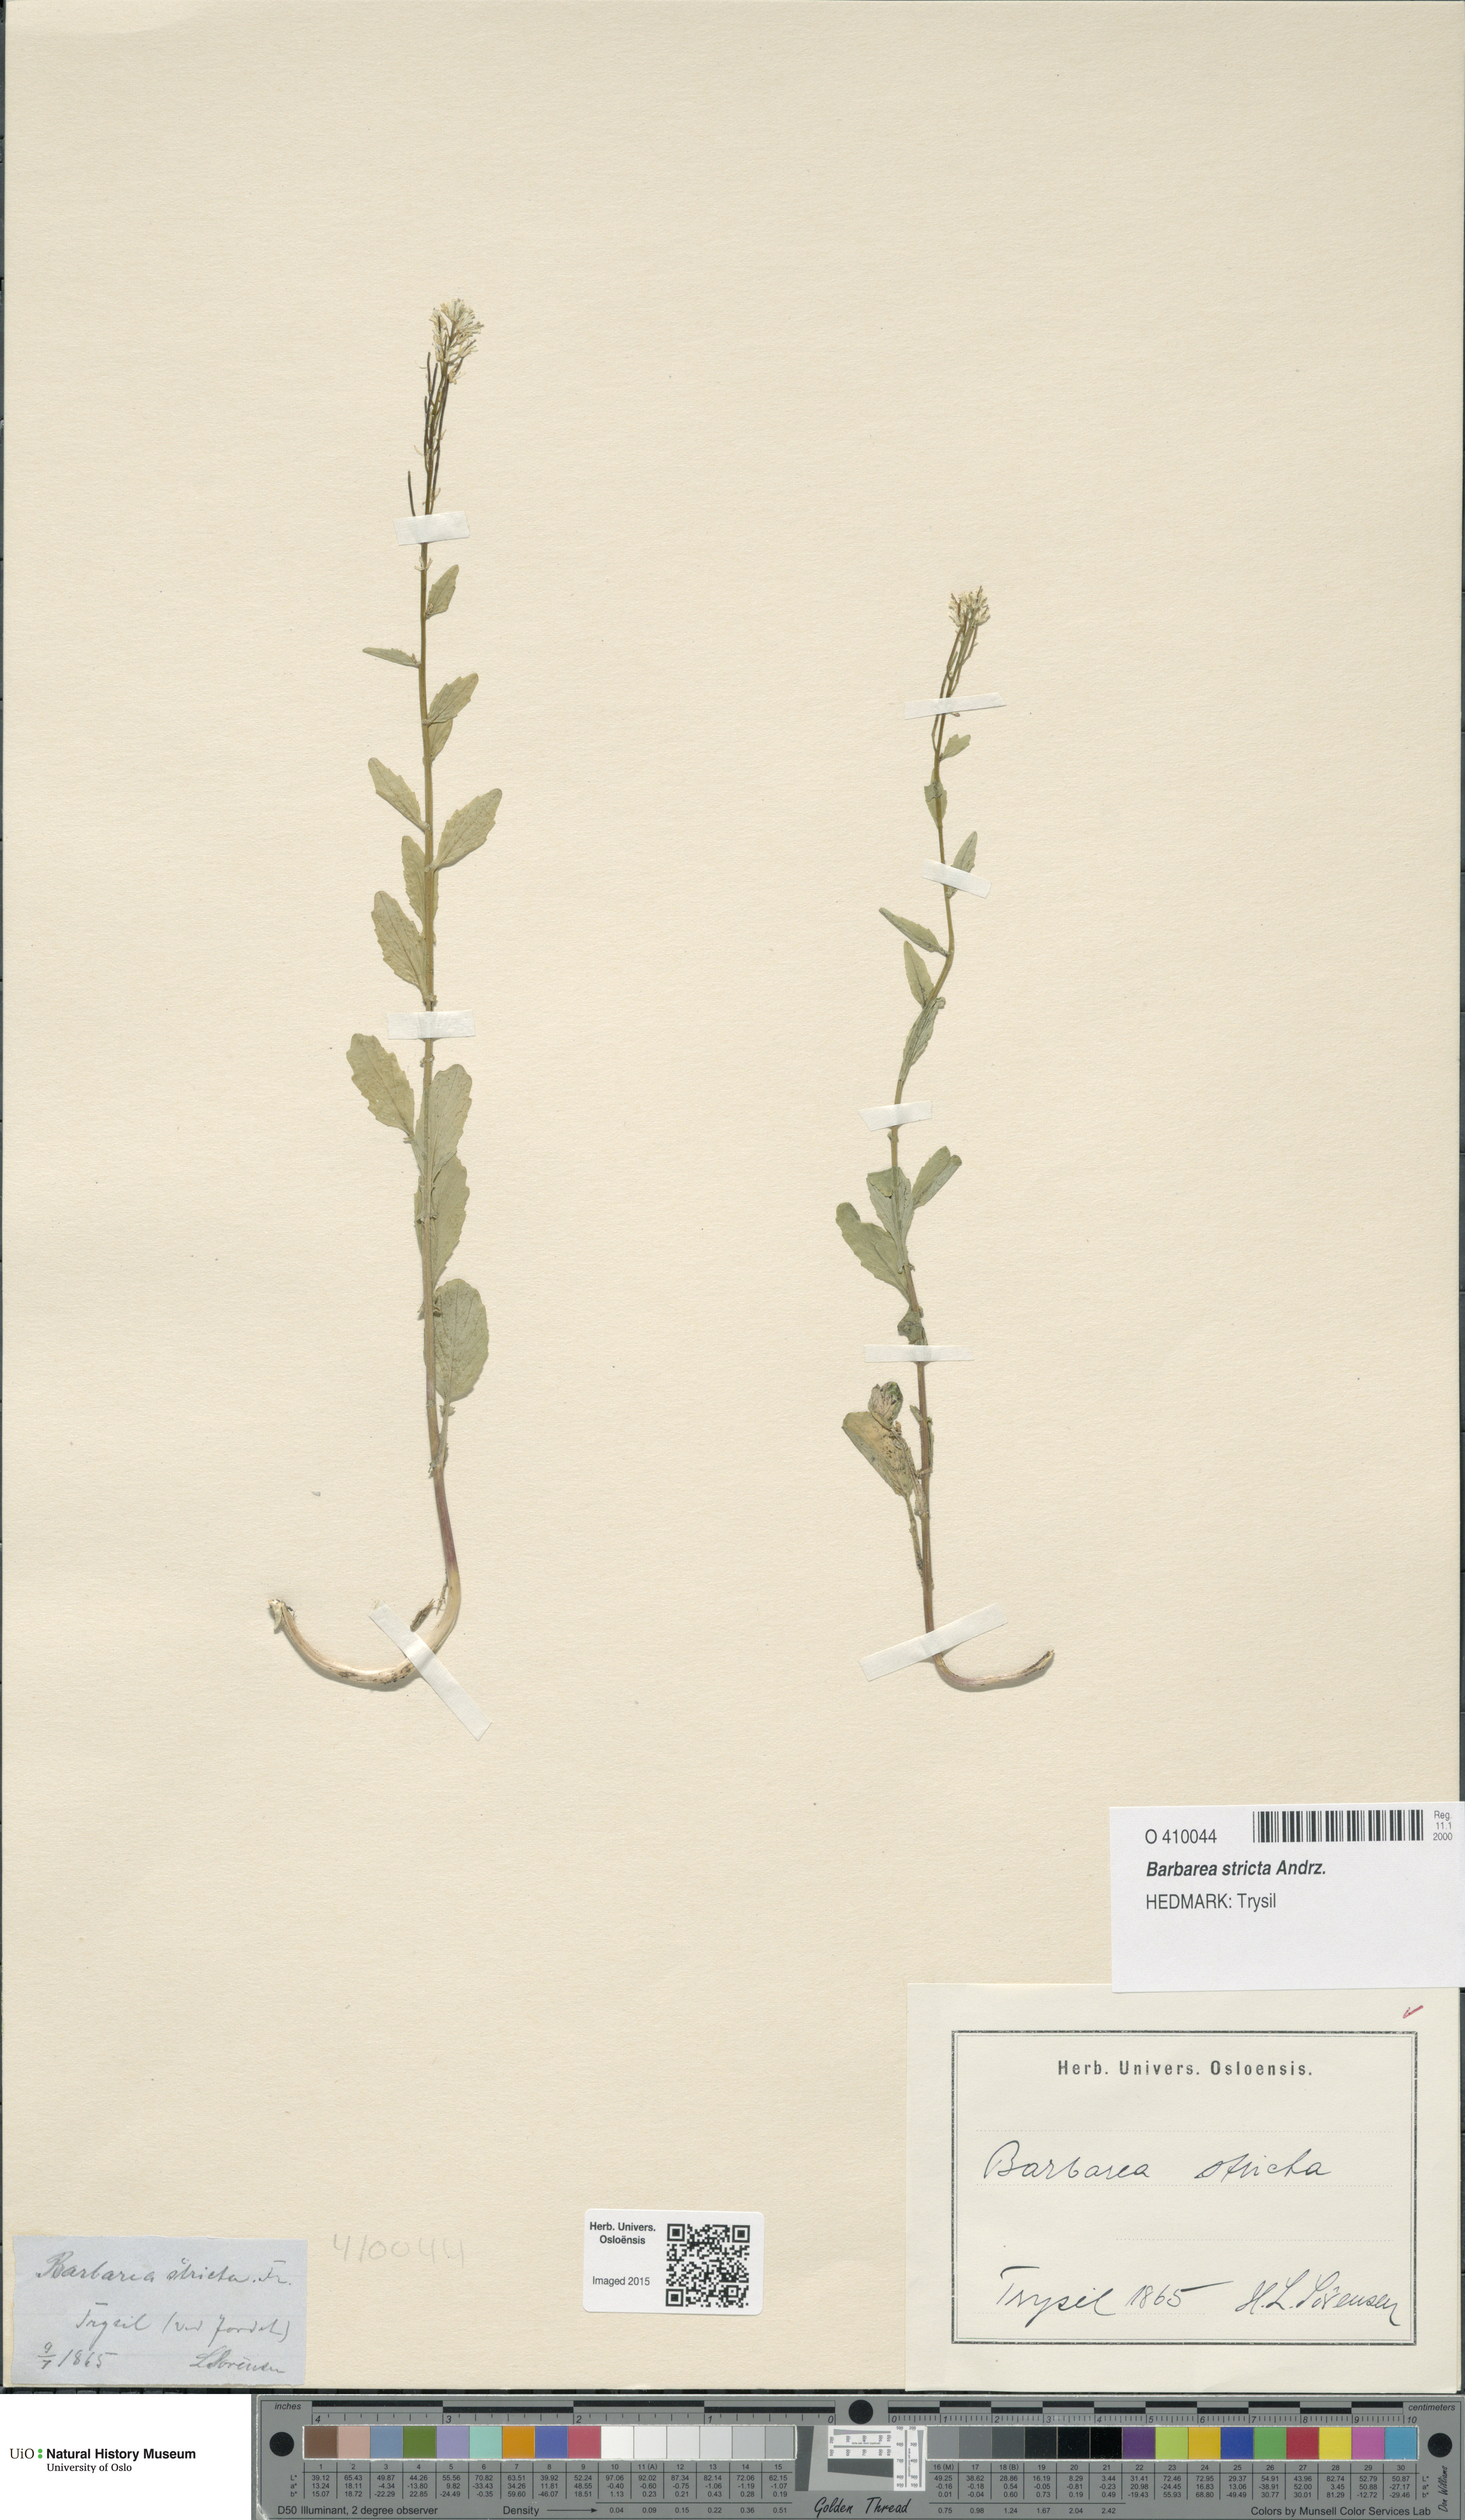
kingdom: Plantae
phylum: Tracheophyta
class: Magnoliopsida
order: Brassicales
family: Brassicaceae
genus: Barbarea
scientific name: Barbarea stricta
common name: Small-flowered winter-cress
